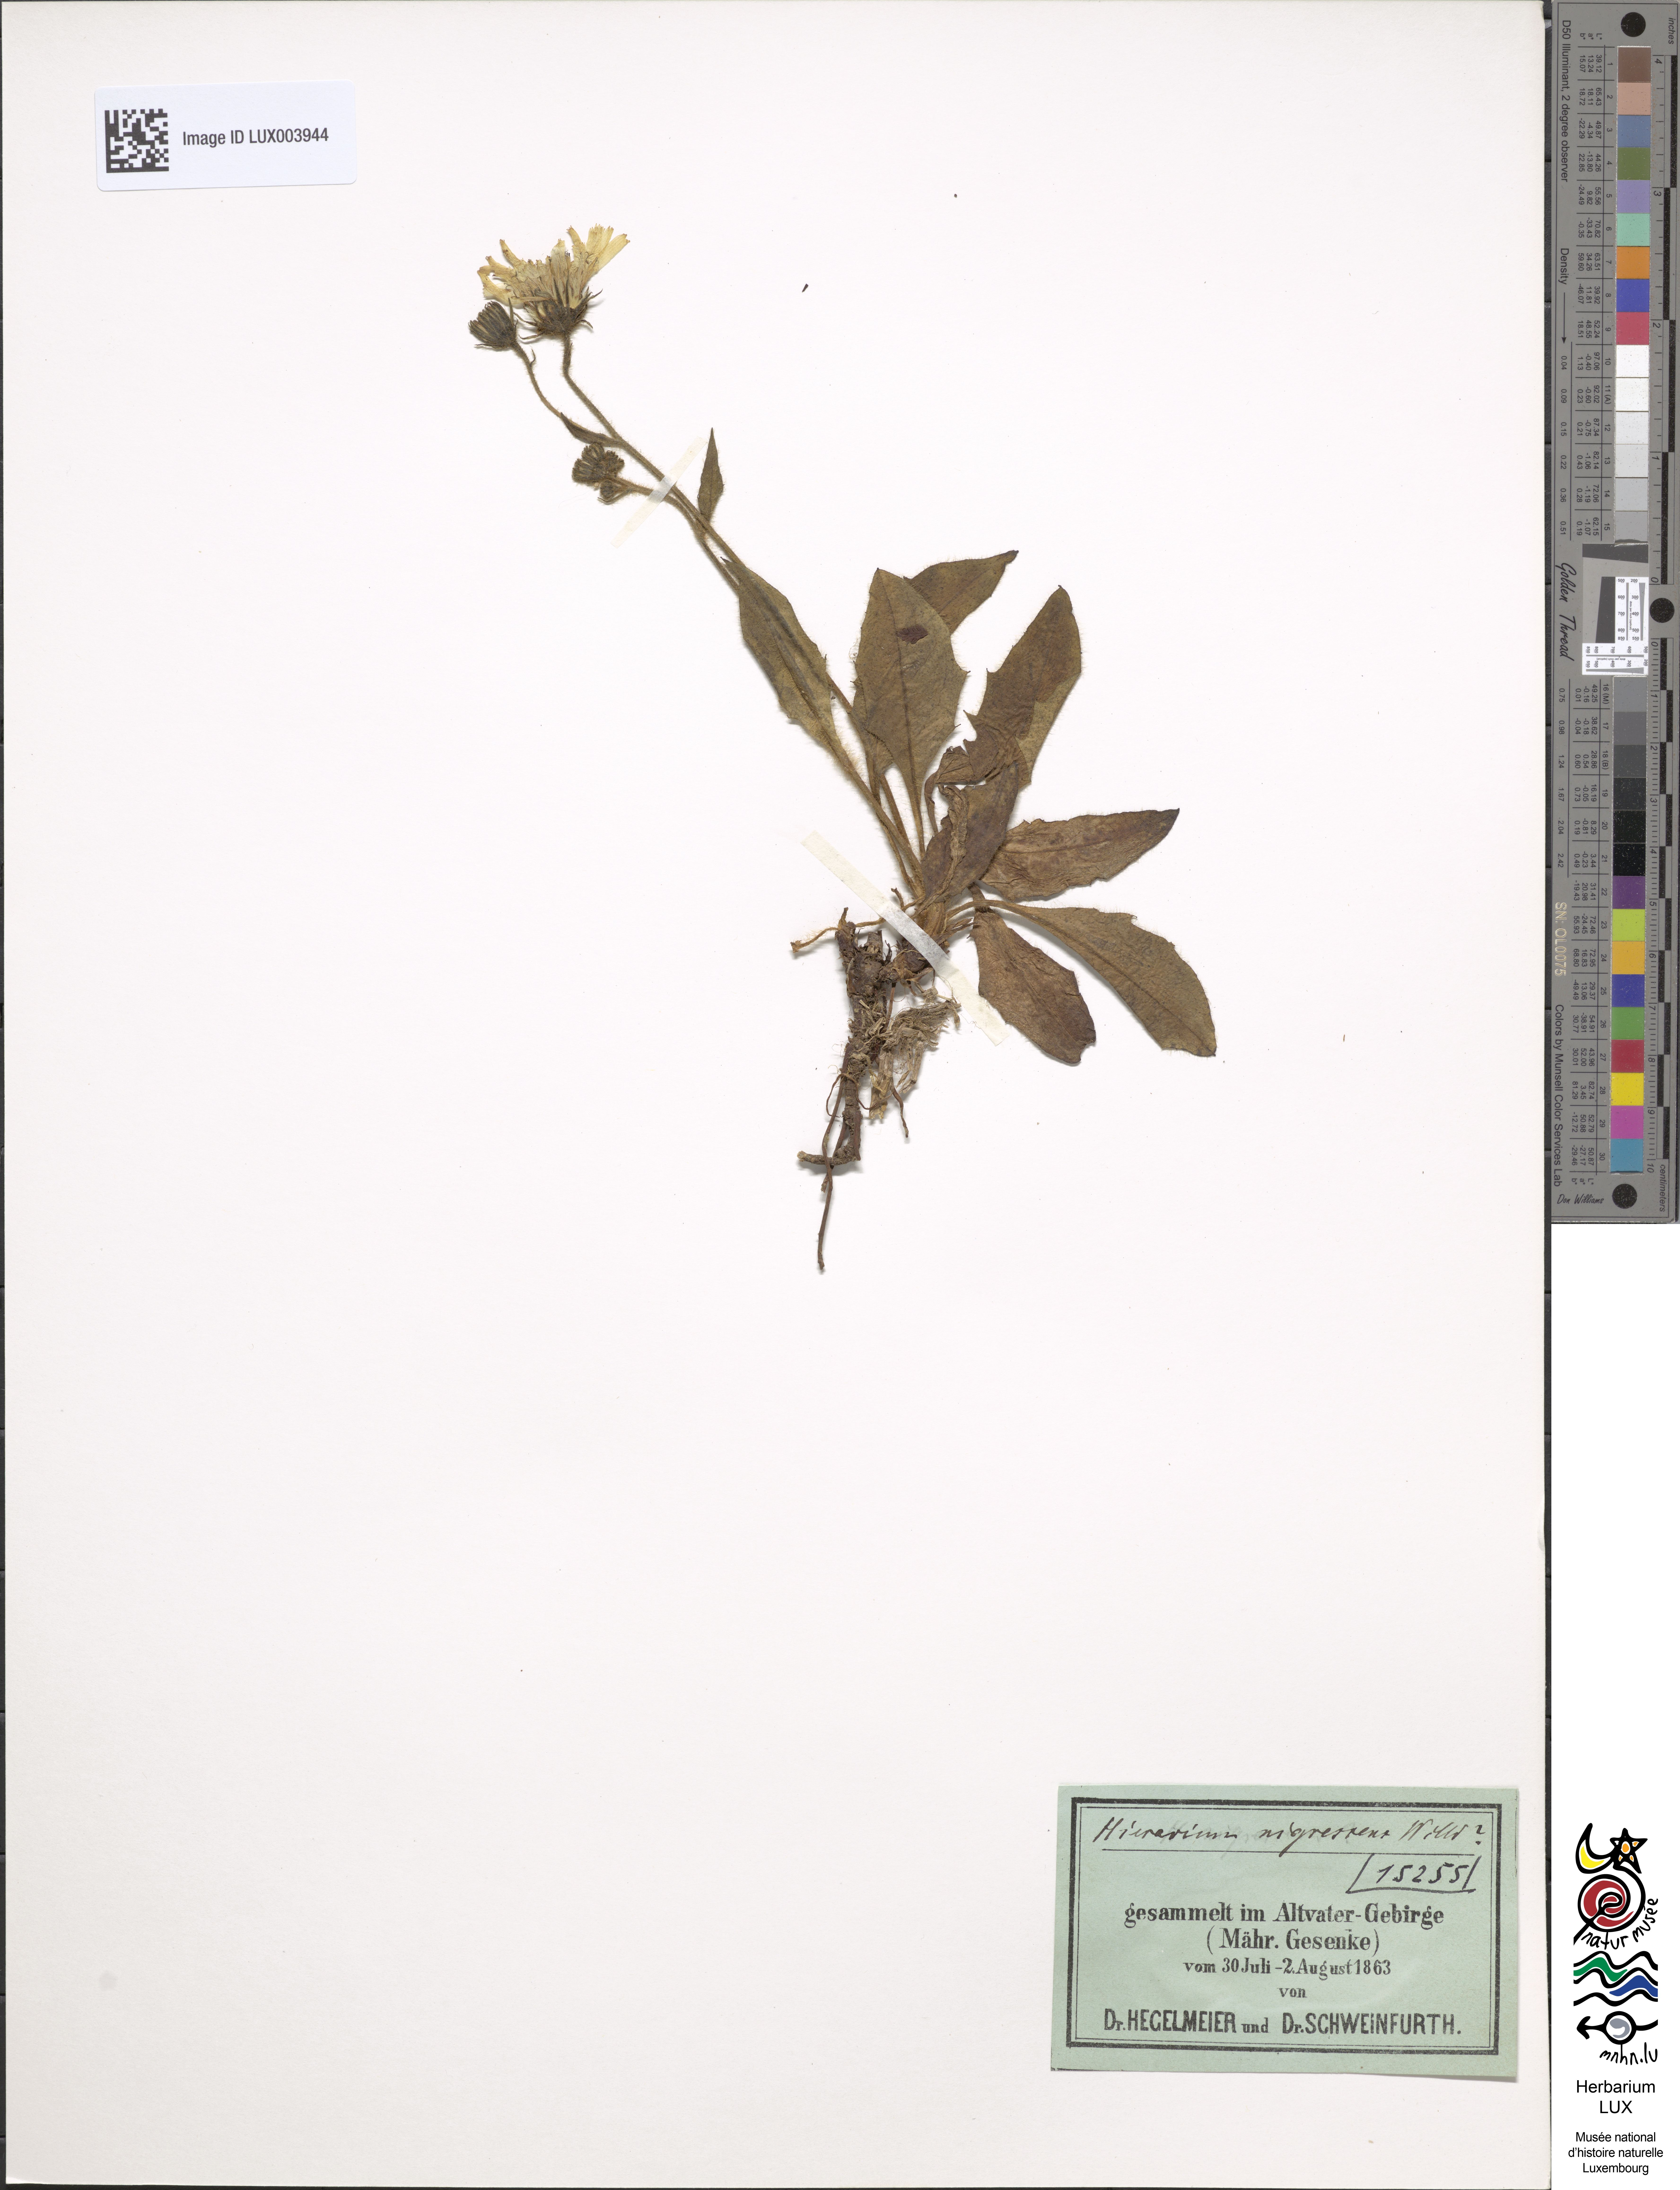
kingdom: Plantae
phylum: Tracheophyta
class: Magnoliopsida
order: Asterales
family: Asteraceae
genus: Hieracium
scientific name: Hieracium nigrescens
